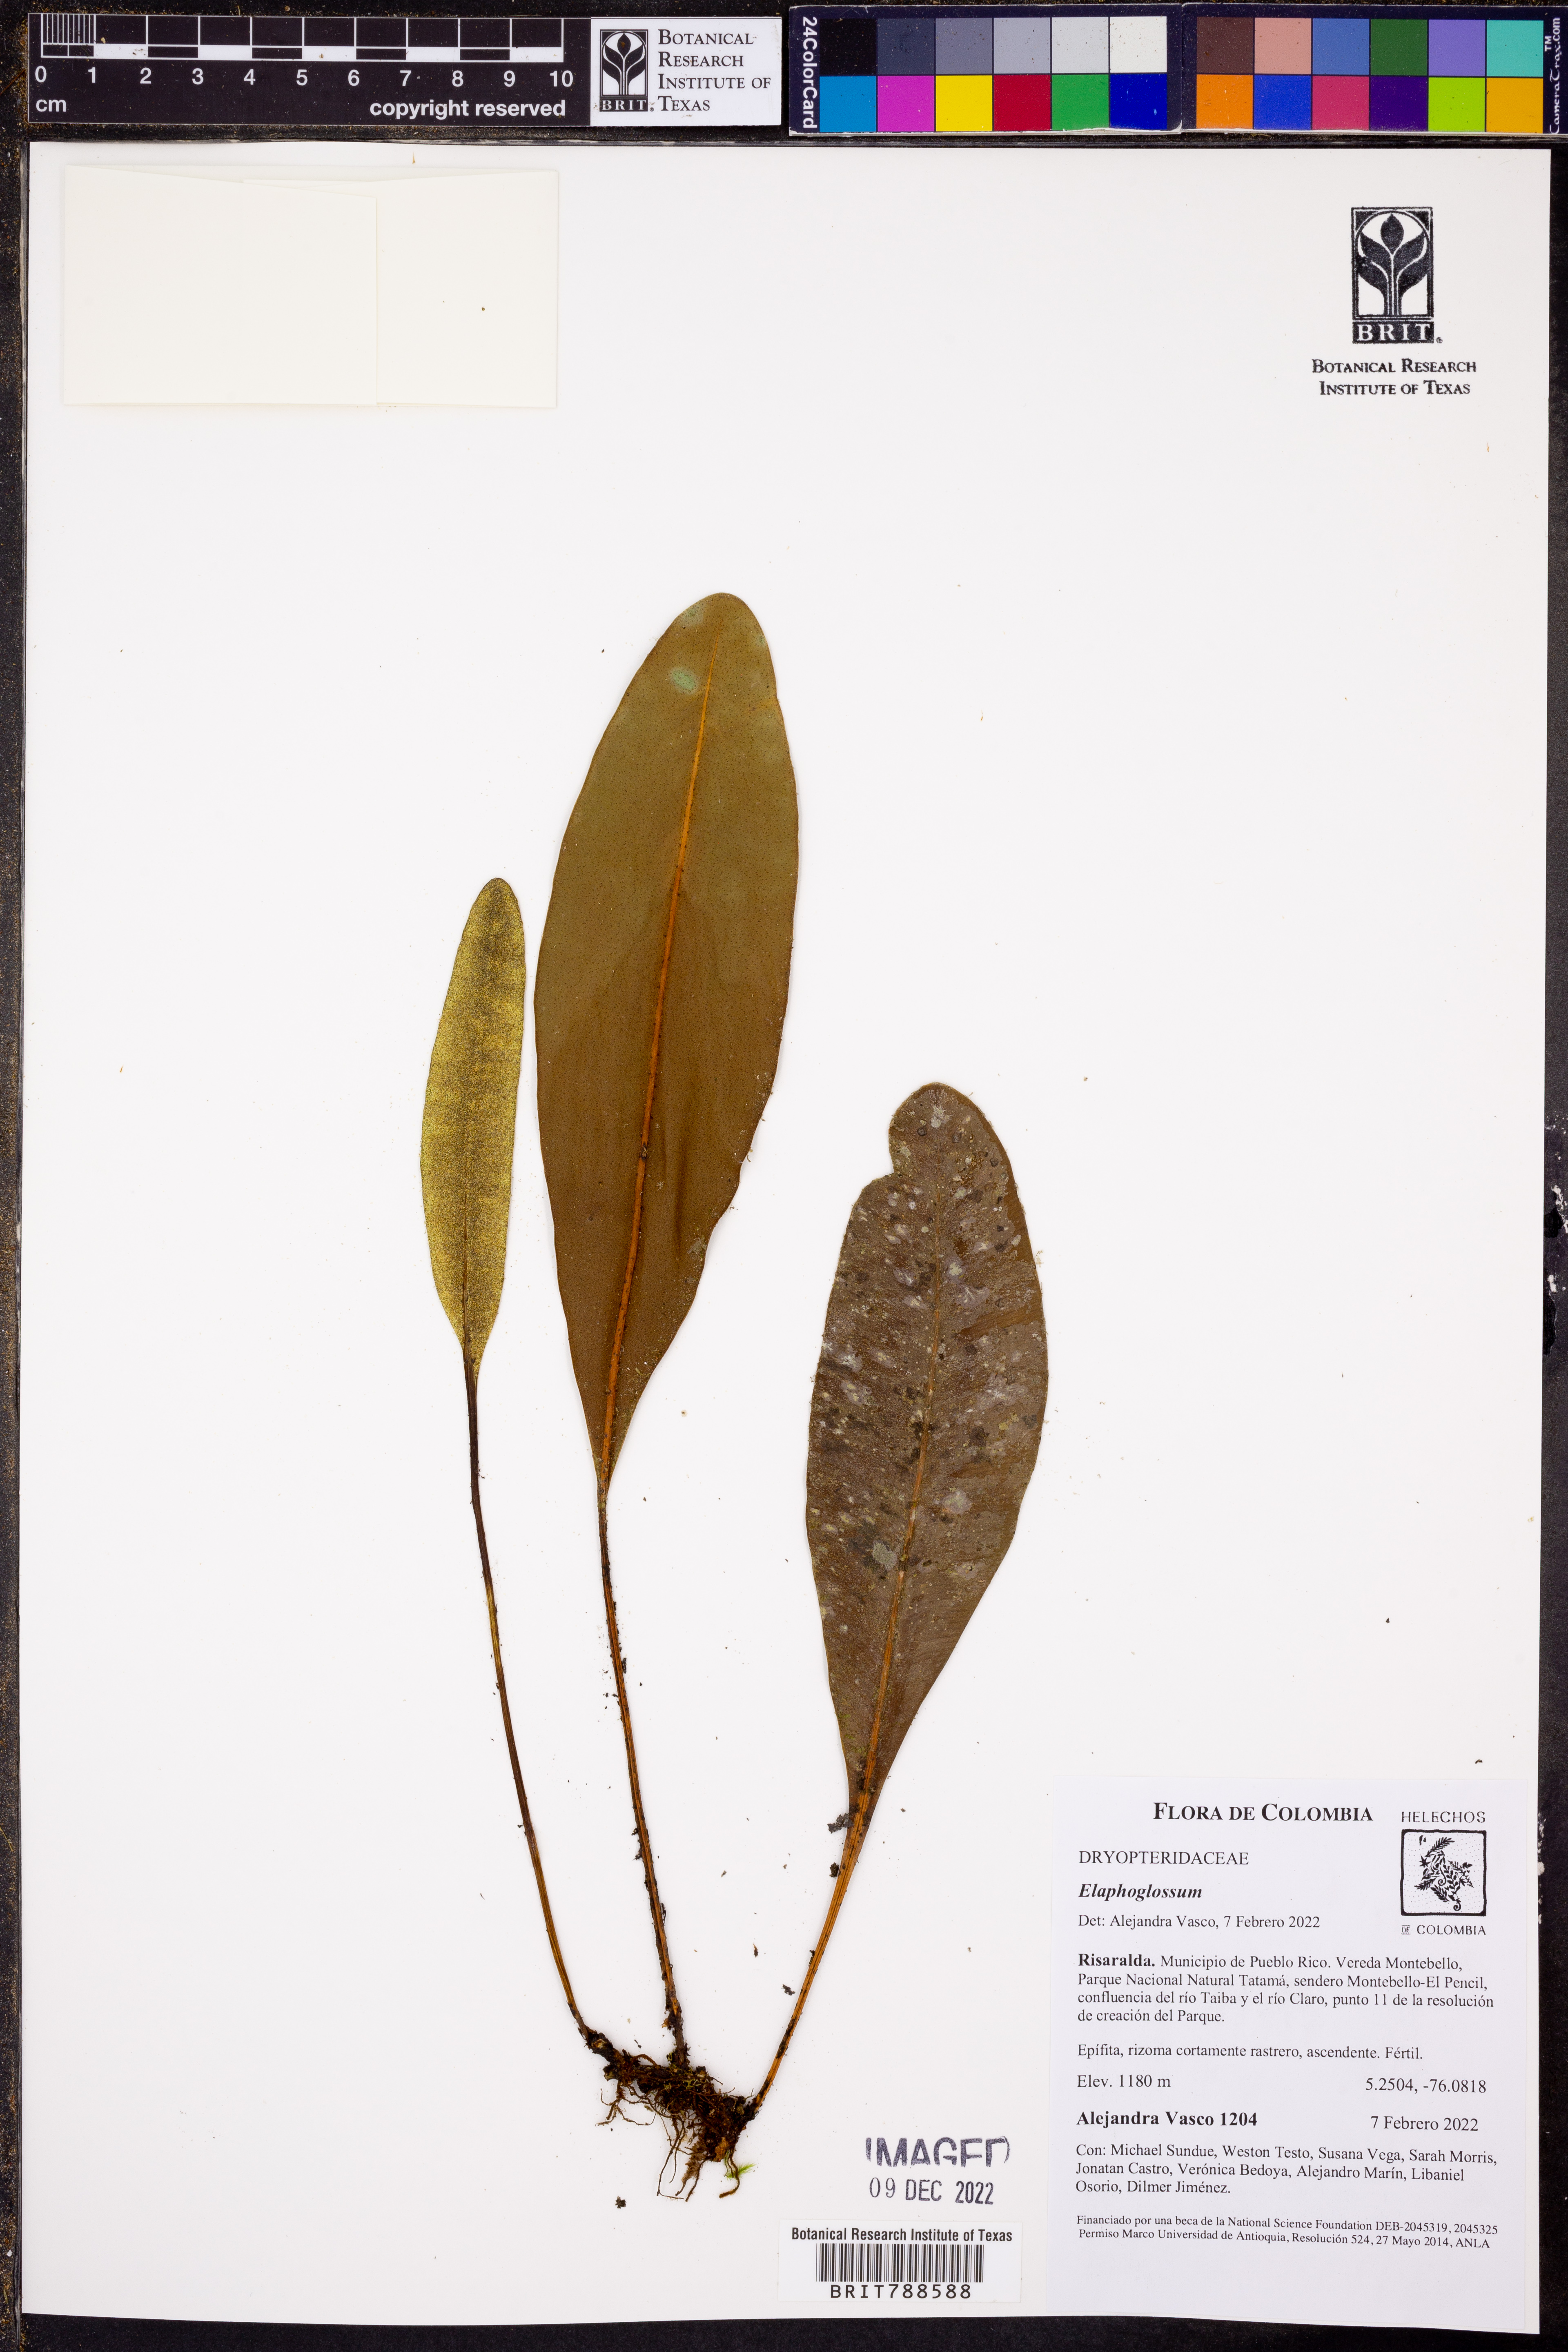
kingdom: Plantae
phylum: Tracheophyta
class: Polypodiopsida
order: Polypodiales
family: Dryopteridaceae
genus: Elaphoglossum
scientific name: Elaphoglossum
